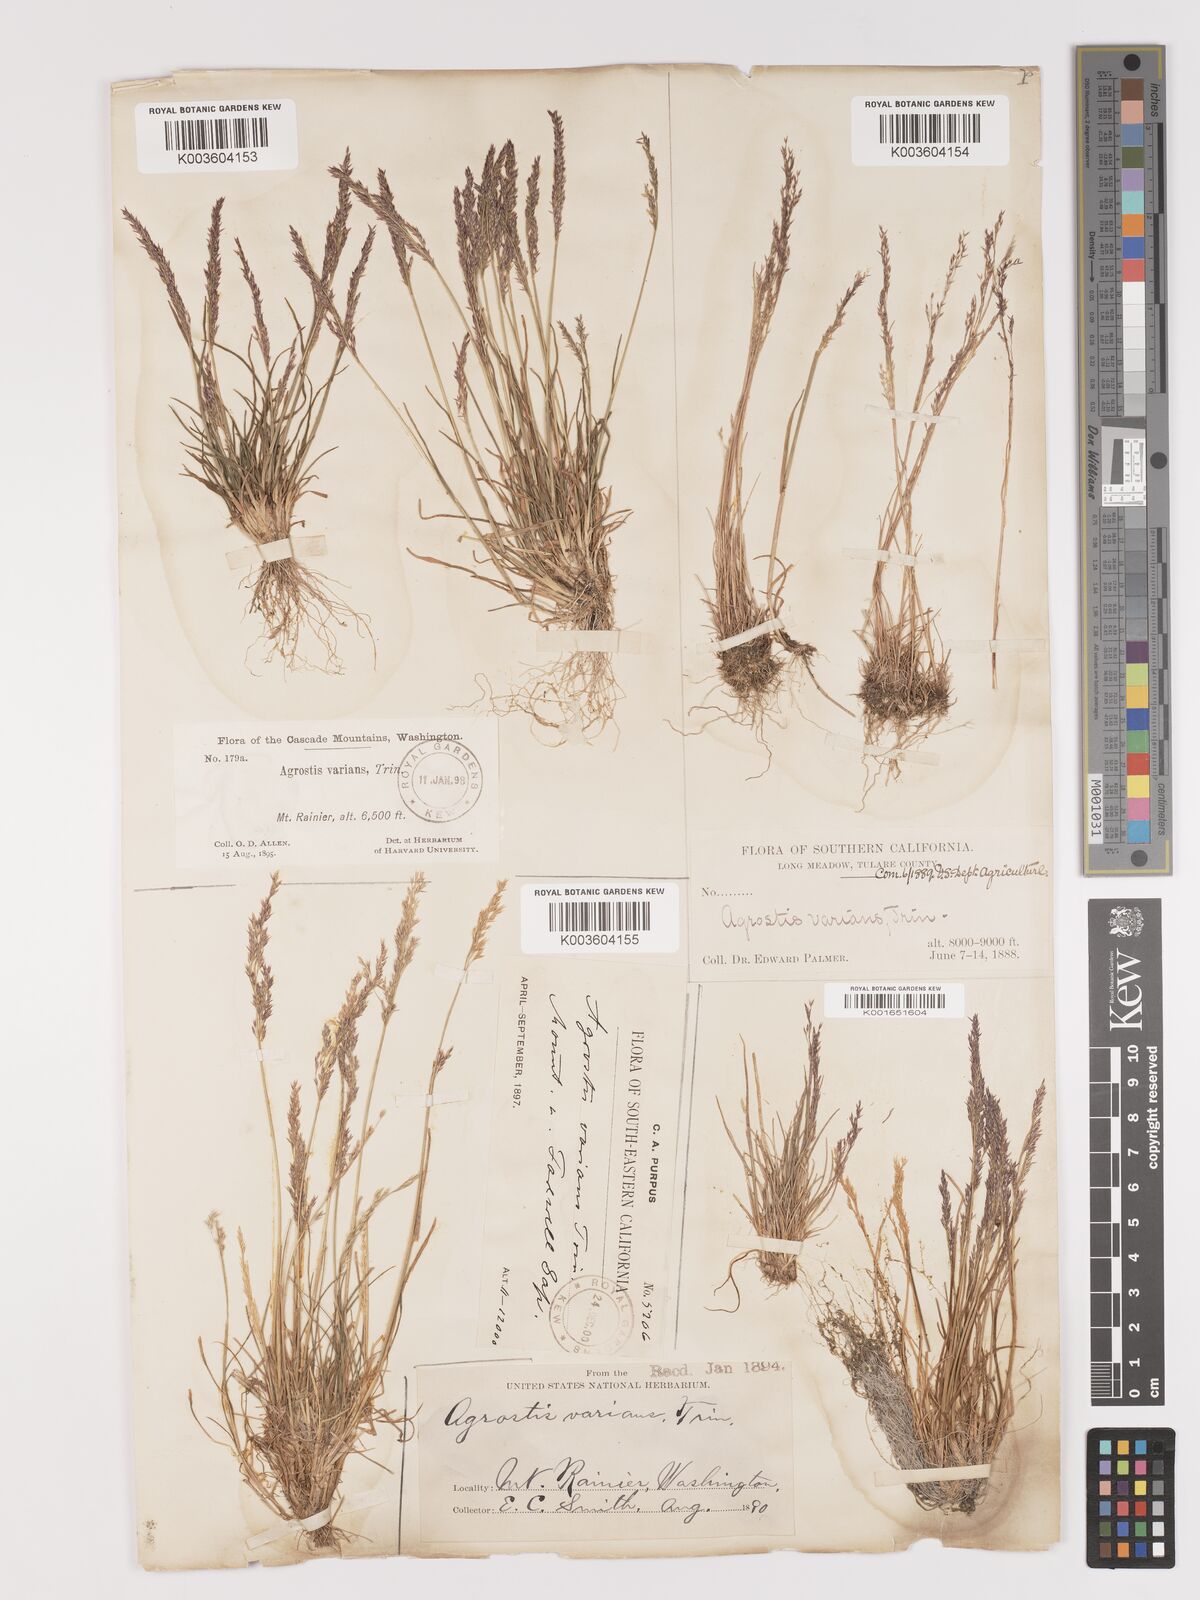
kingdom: Plantae
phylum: Tracheophyta
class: Liliopsida
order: Poales
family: Poaceae
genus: Agrostis
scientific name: Agrostis rossiae
